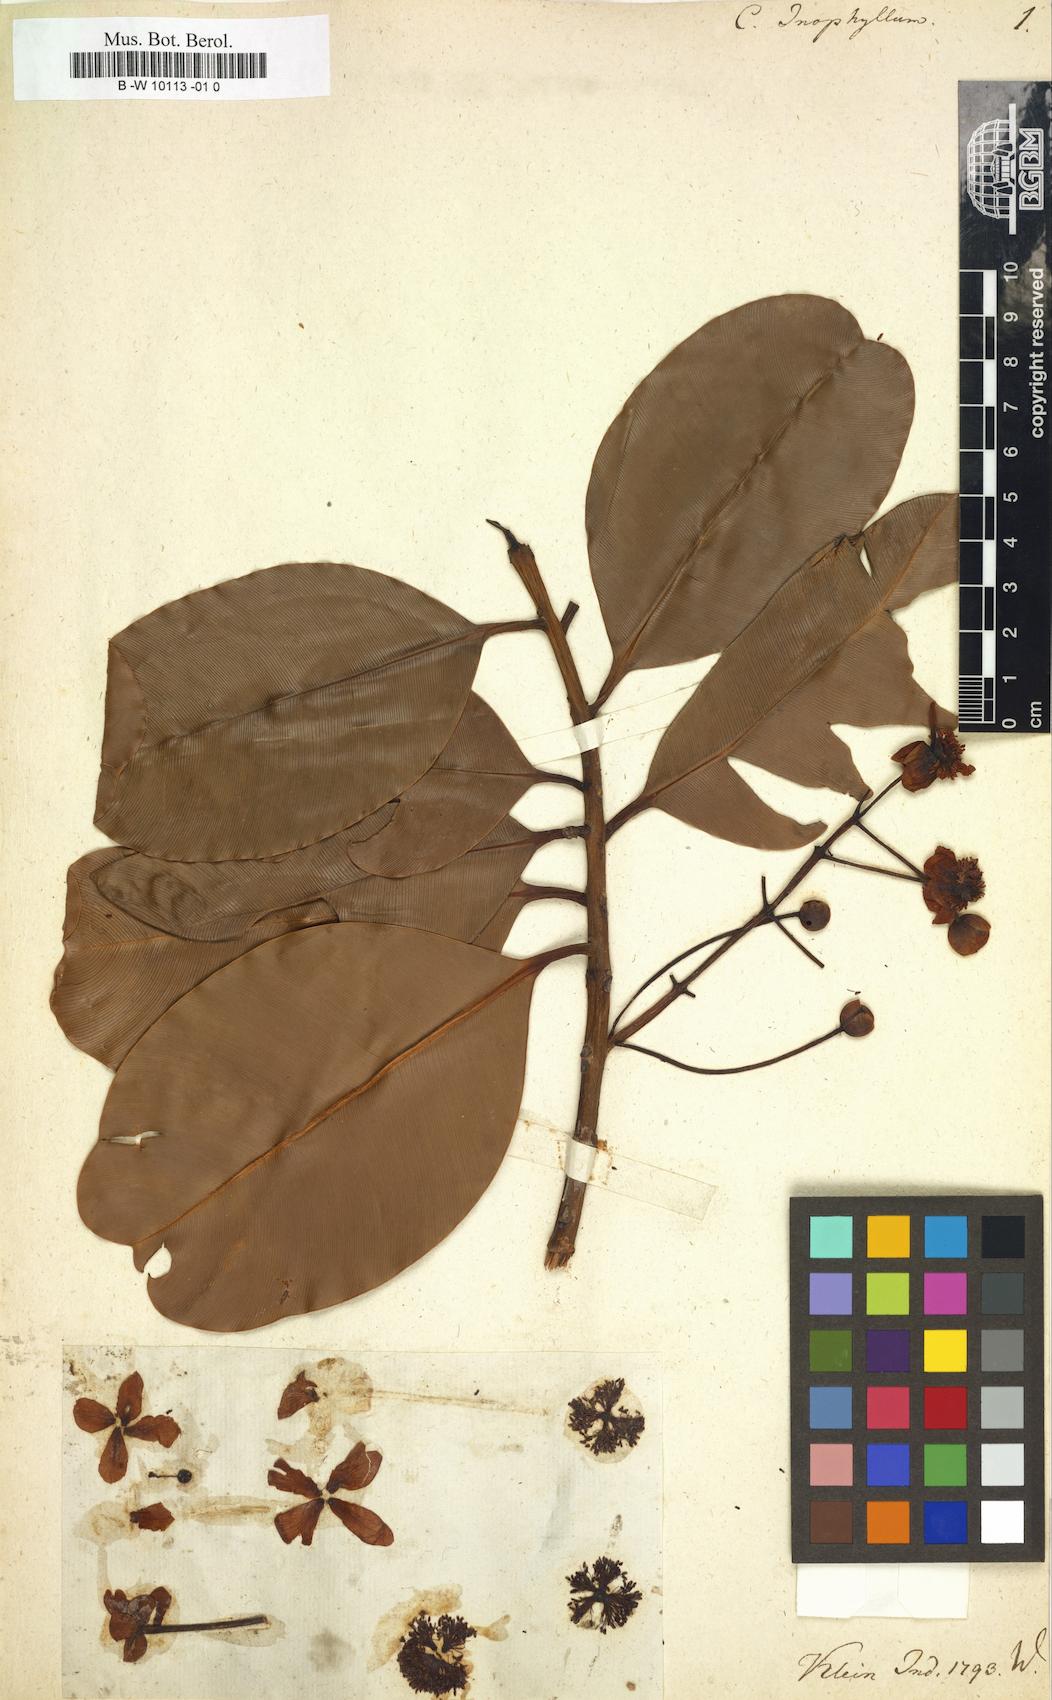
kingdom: Plantae
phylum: Tracheophyta
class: Magnoliopsida
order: Malpighiales
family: Calophyllaceae
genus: Calophyllum
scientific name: Calophyllum inophyllum
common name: Alexandrian laurel
